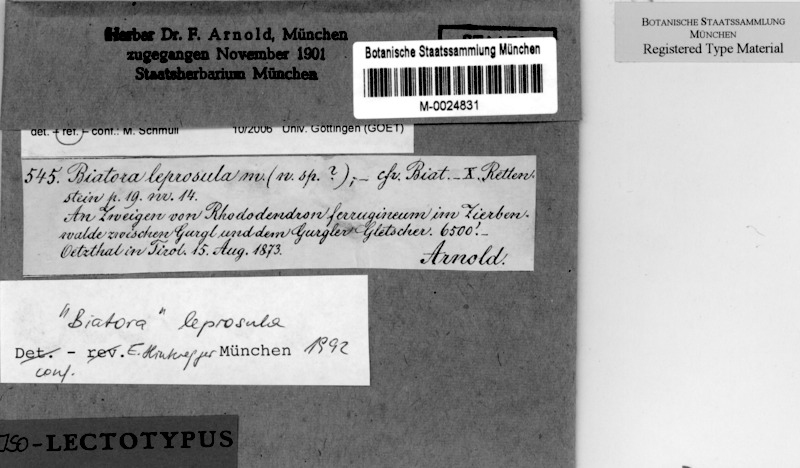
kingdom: Fungi
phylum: Ascomycota
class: Lecanoromycetes
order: Lecanorales
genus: Myochroidea
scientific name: Myochroidea leprosula
